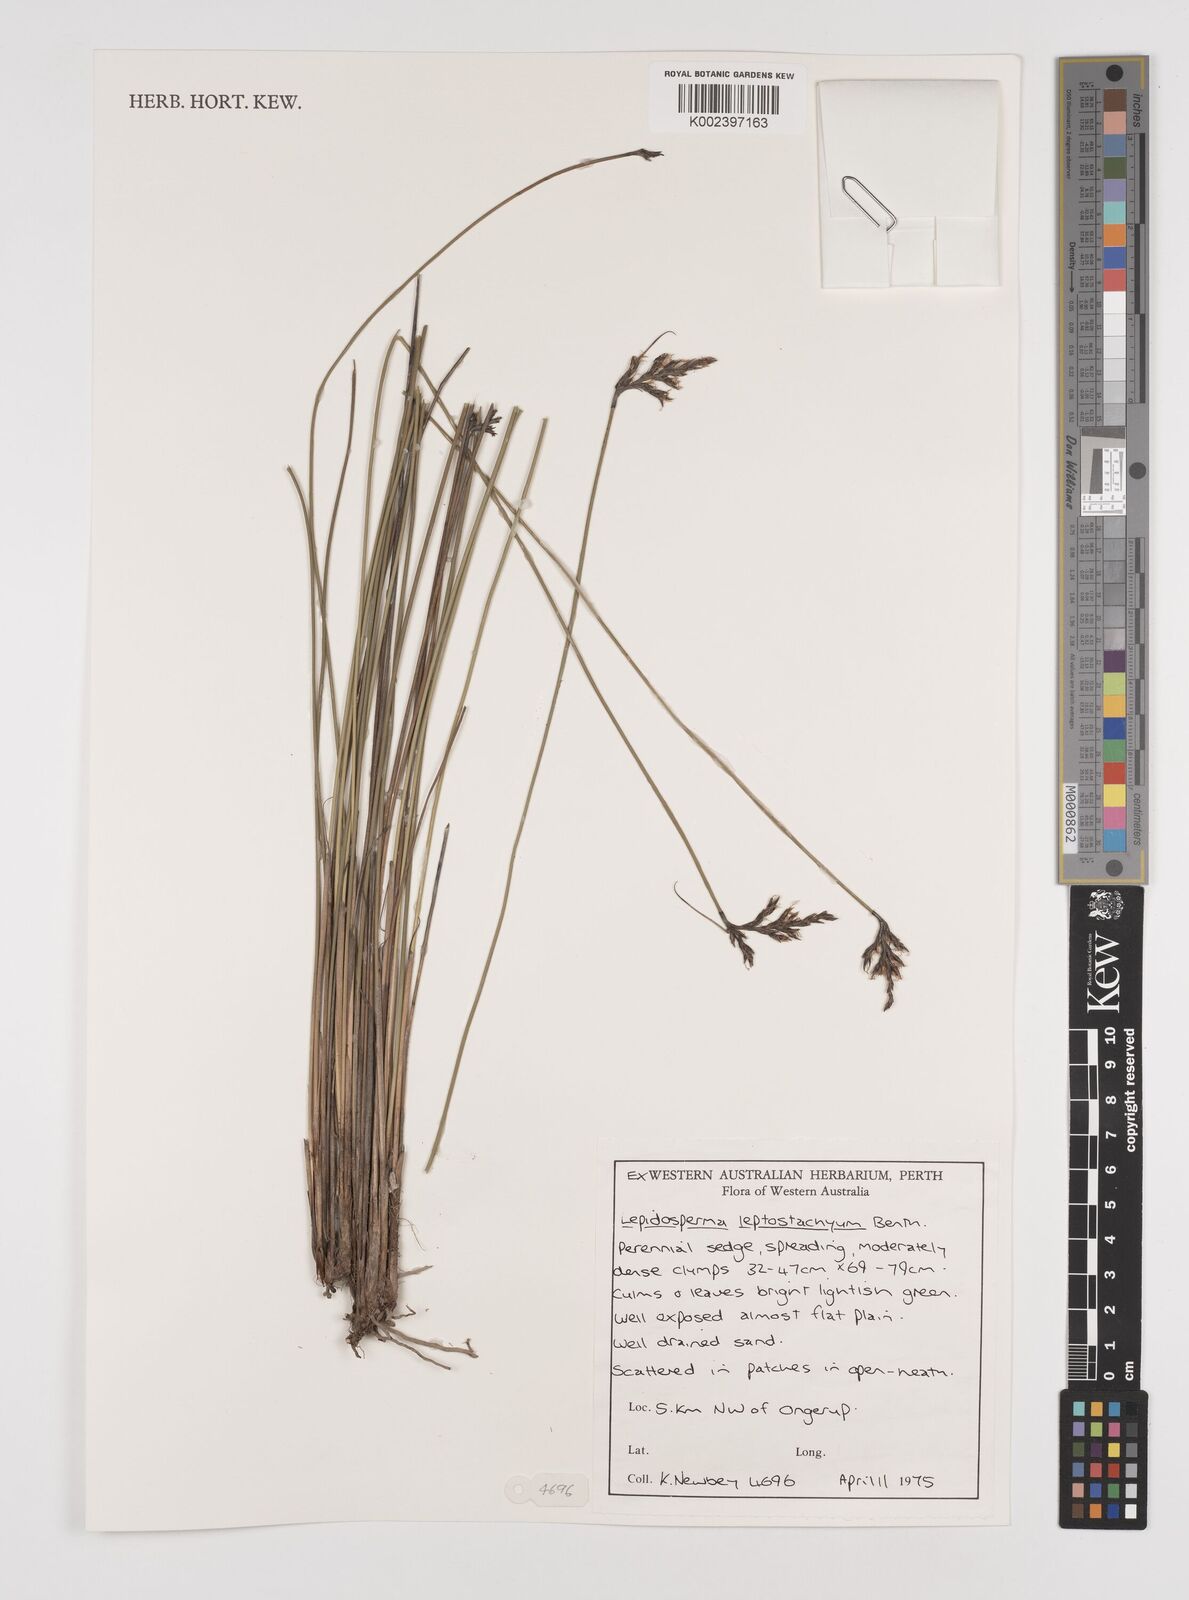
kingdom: Plantae
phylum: Tracheophyta
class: Liliopsida
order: Poales
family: Cyperaceae
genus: Lepidosperma
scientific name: Lepidosperma leptostachyum
